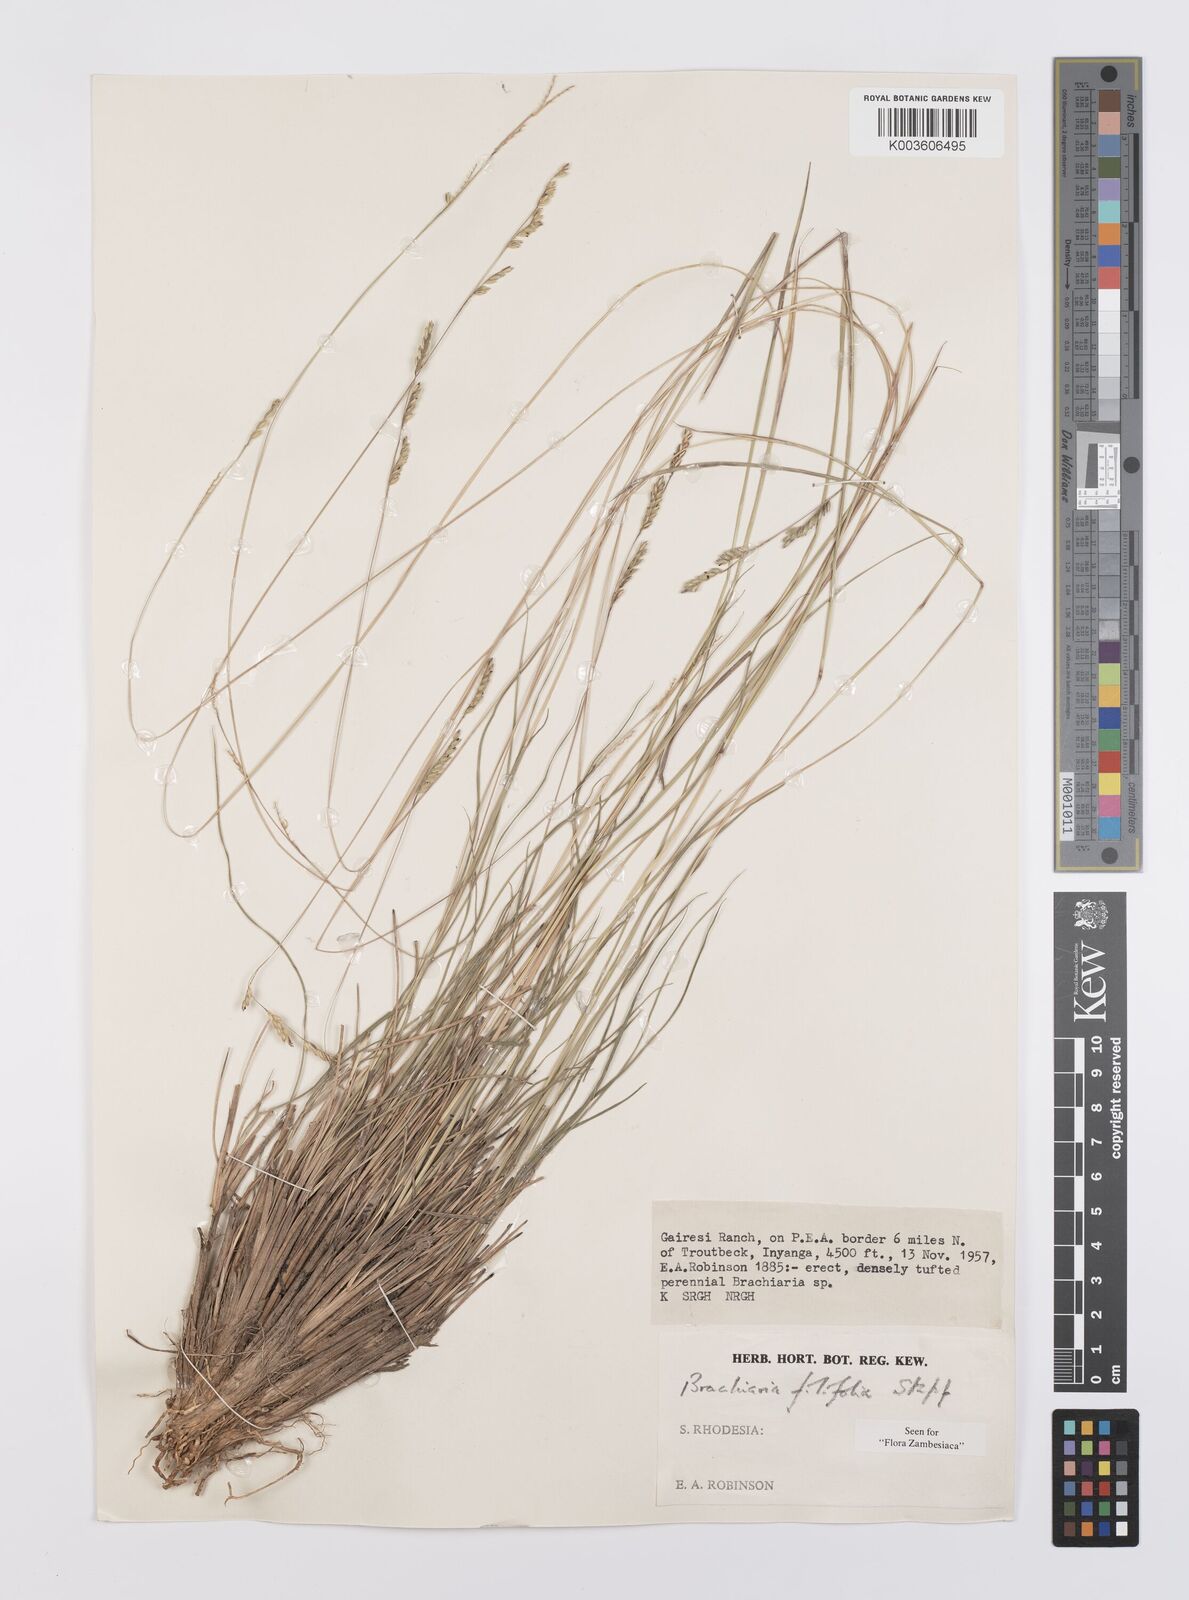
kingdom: Plantae
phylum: Tracheophyta
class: Liliopsida
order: Poales
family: Poaceae
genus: Urochloa
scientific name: Urochloa subulifolia
